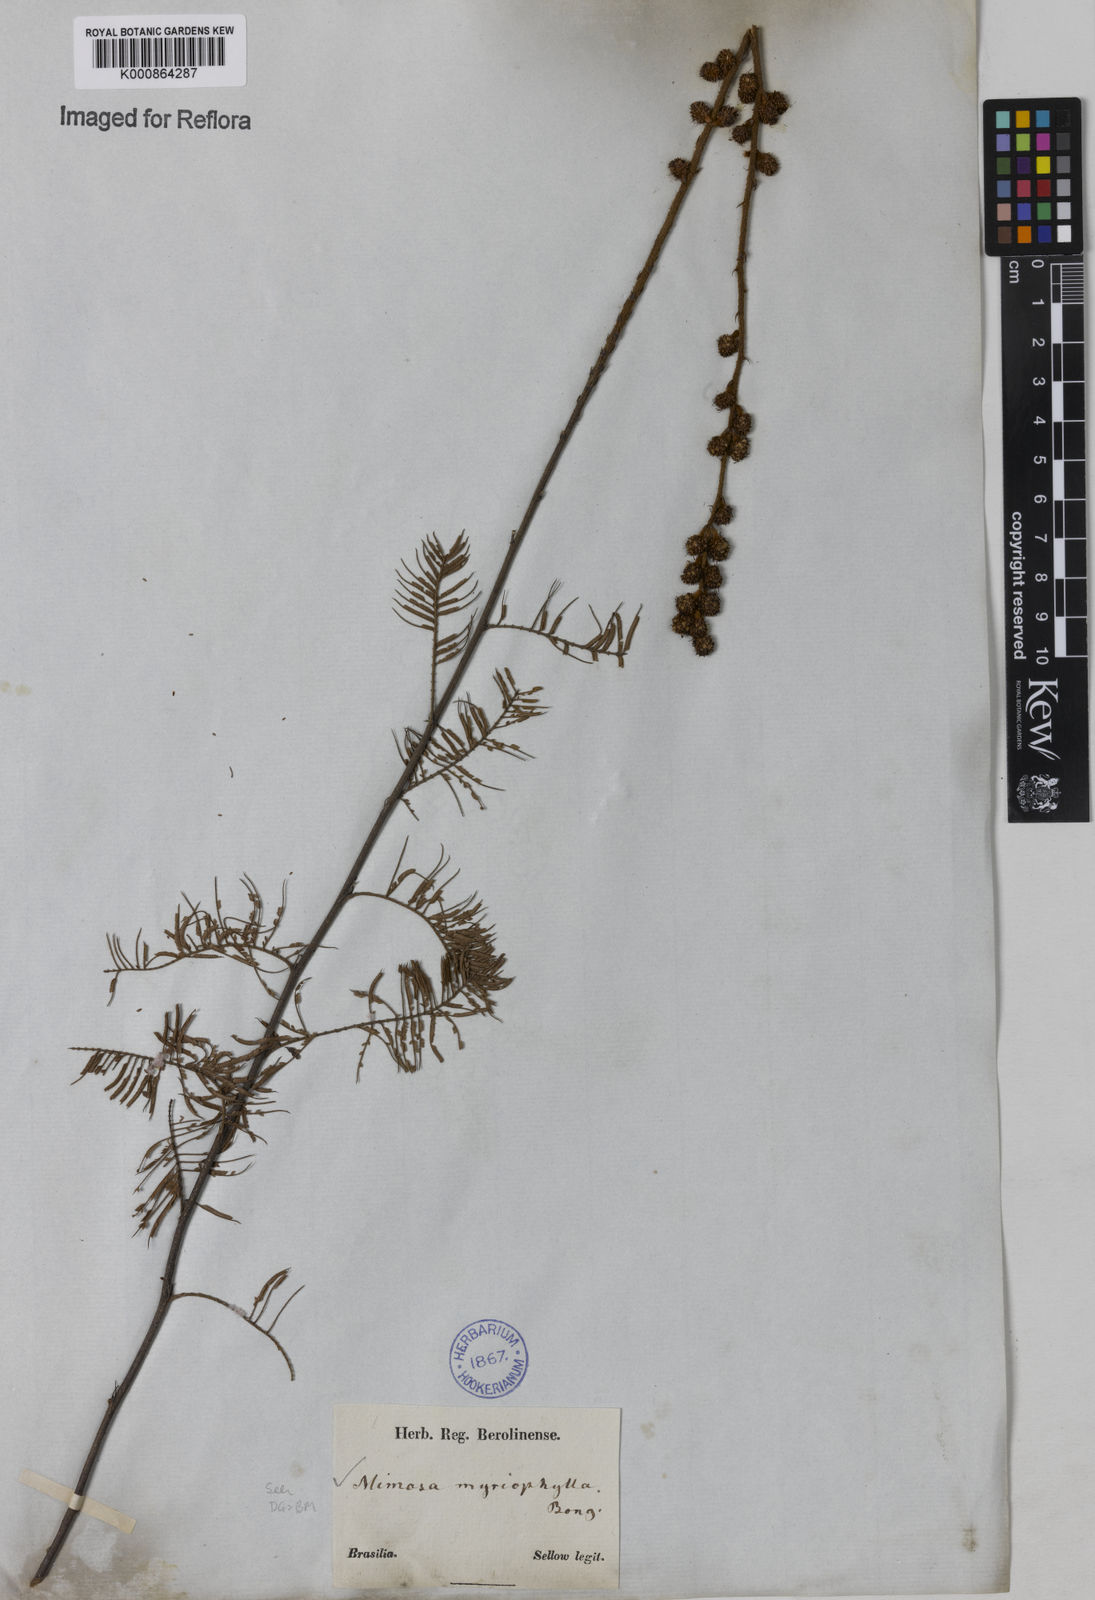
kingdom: Plantae
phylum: Tracheophyta
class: Magnoliopsida
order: Fabales
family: Fabaceae
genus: Mimosa
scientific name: Mimosa
